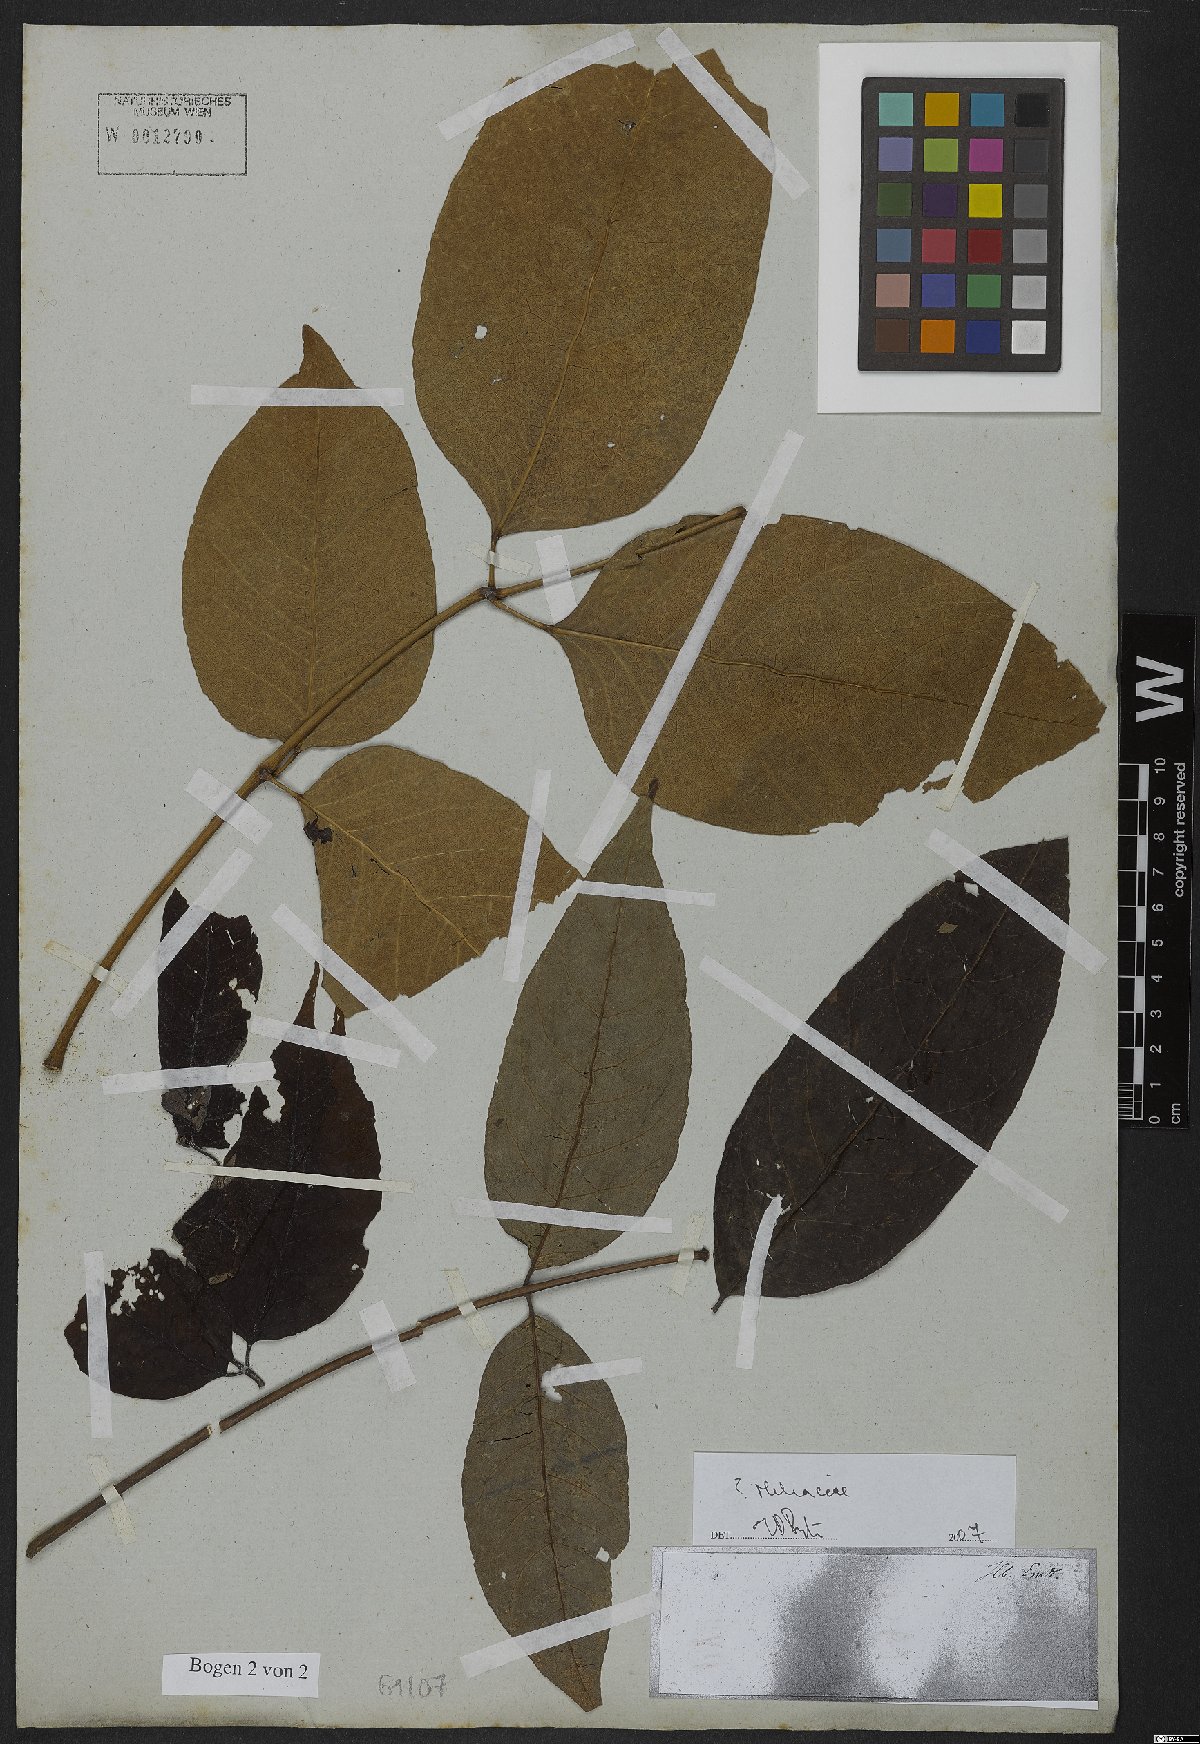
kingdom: Plantae
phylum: Tracheophyta
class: Magnoliopsida
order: Sapindales
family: Meliaceae
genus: Guarea
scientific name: Guarea macrophylla
